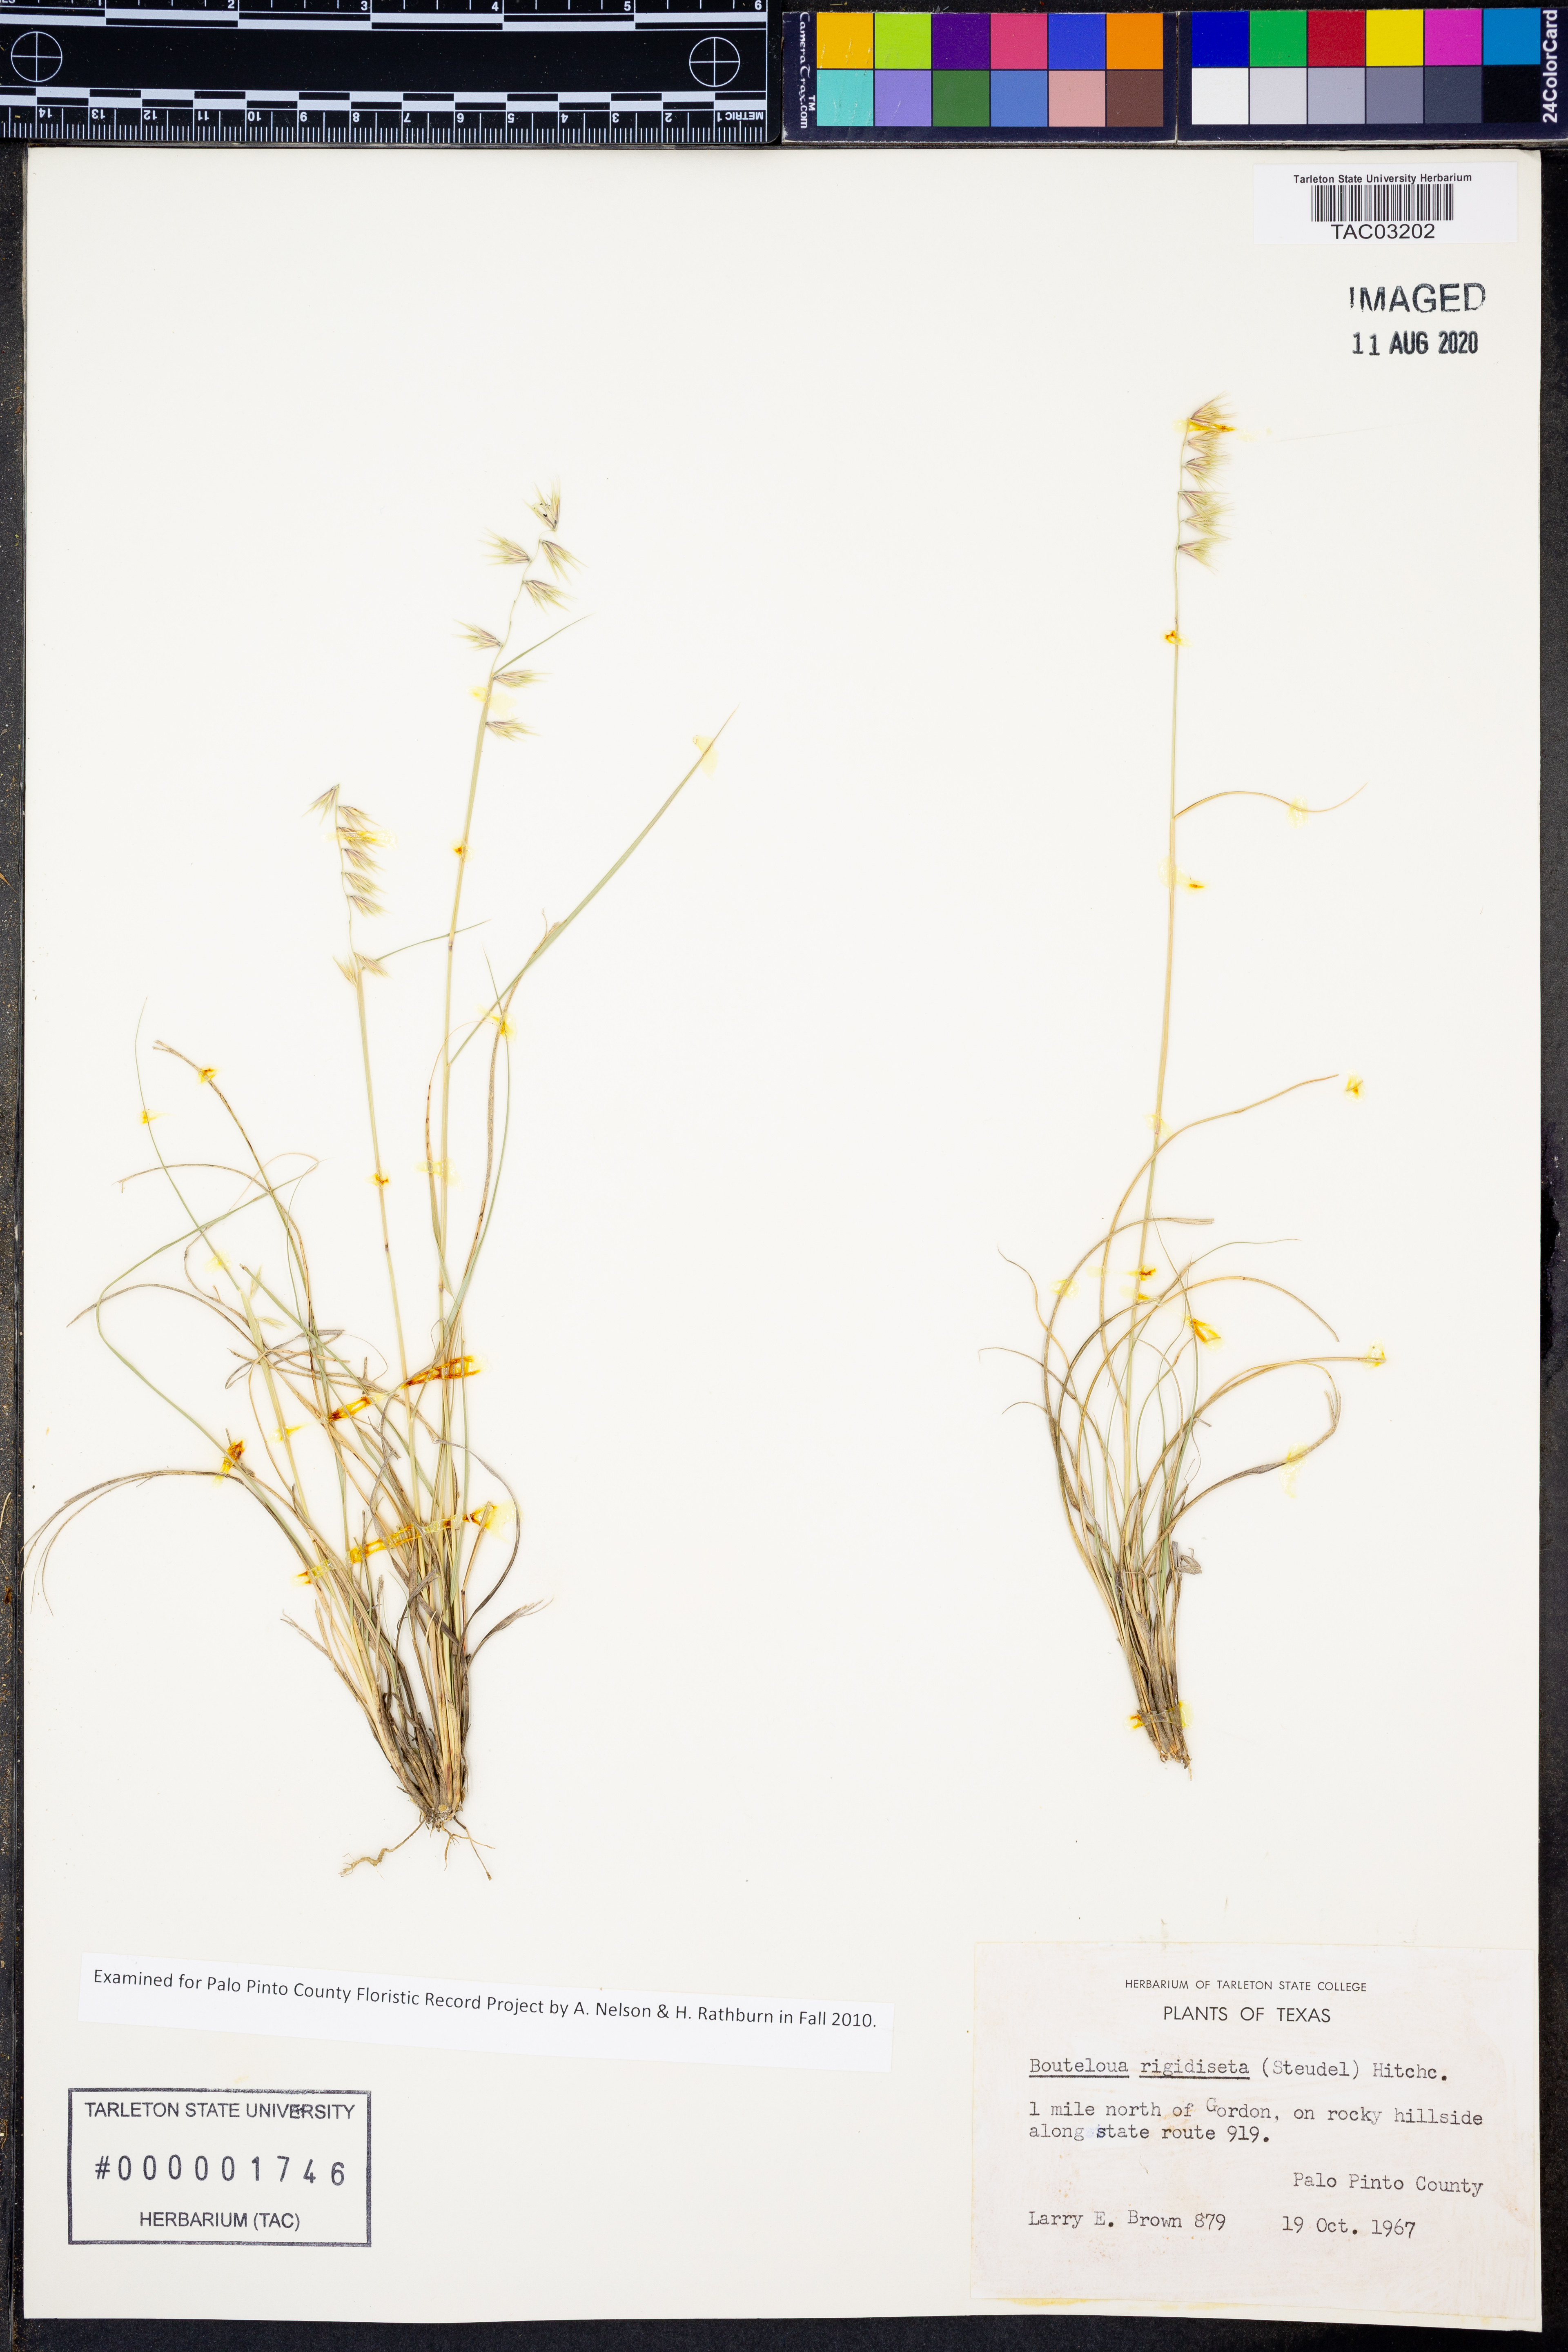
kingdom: Plantae
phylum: Tracheophyta
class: Liliopsida
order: Poales
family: Poaceae
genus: Bouteloua
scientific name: Bouteloua rigidiseta
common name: Texas grama
